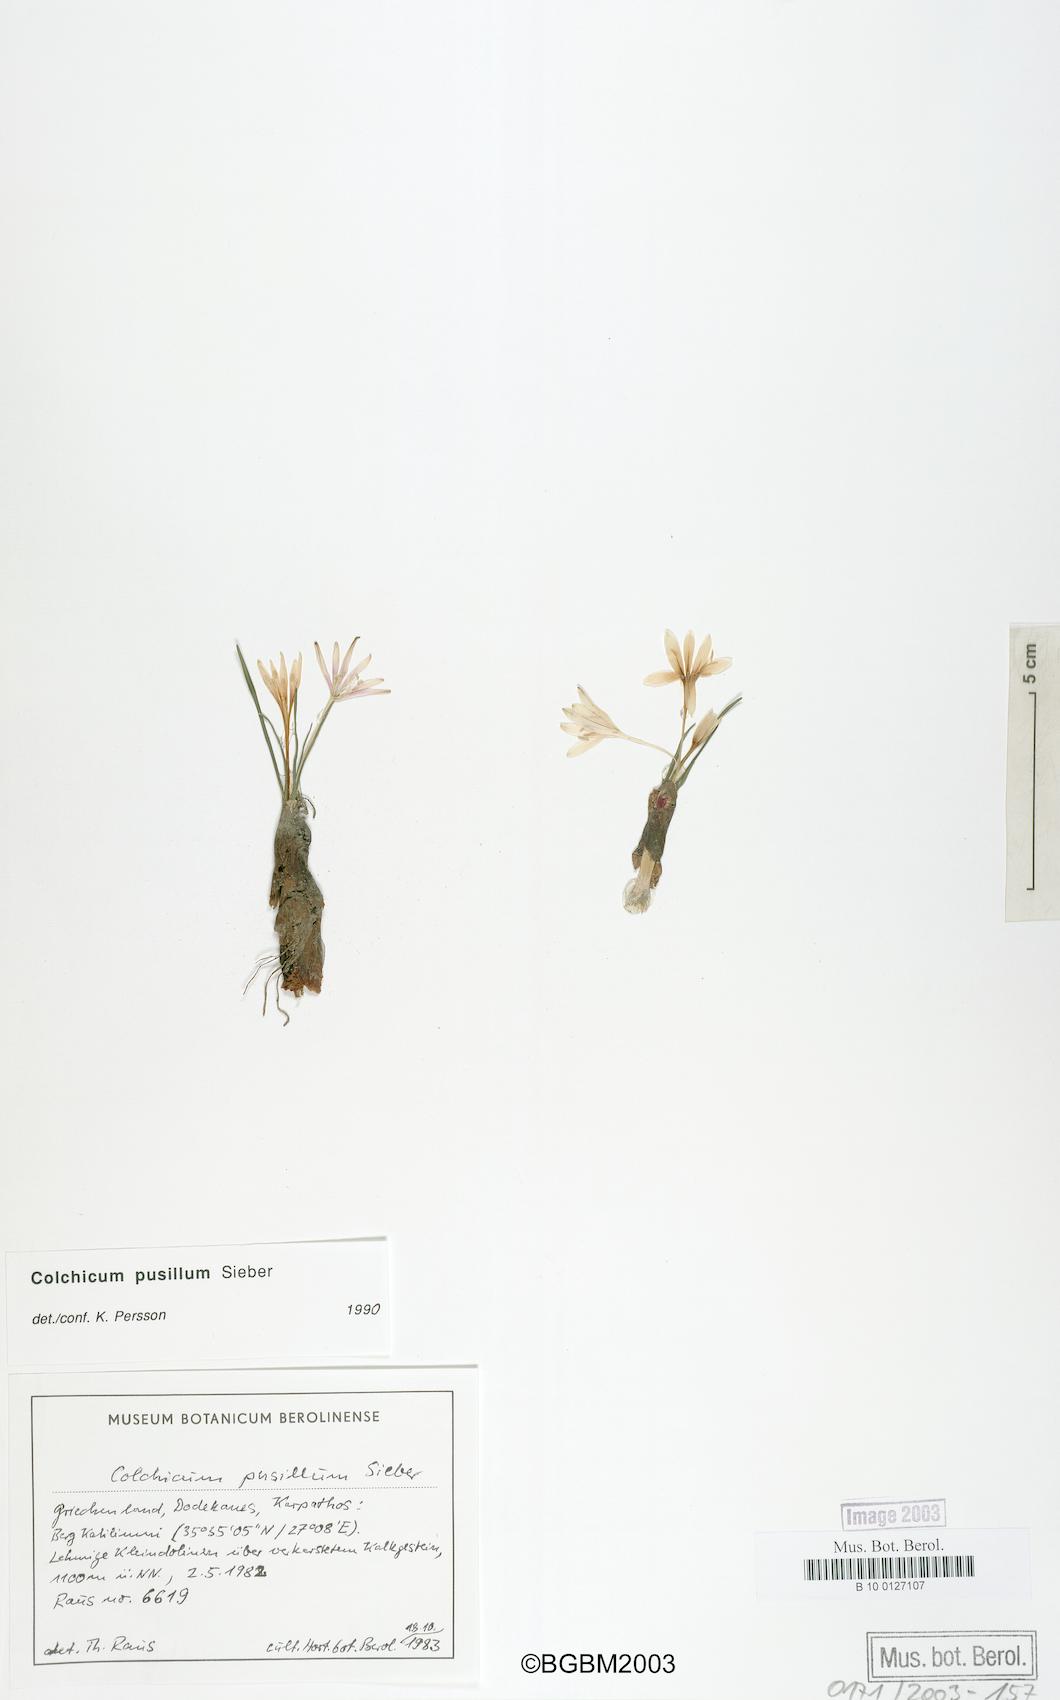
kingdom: Plantae
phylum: Tracheophyta
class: Liliopsida
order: Liliales
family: Colchicaceae
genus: Colchicum
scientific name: Colchicum pusillum
